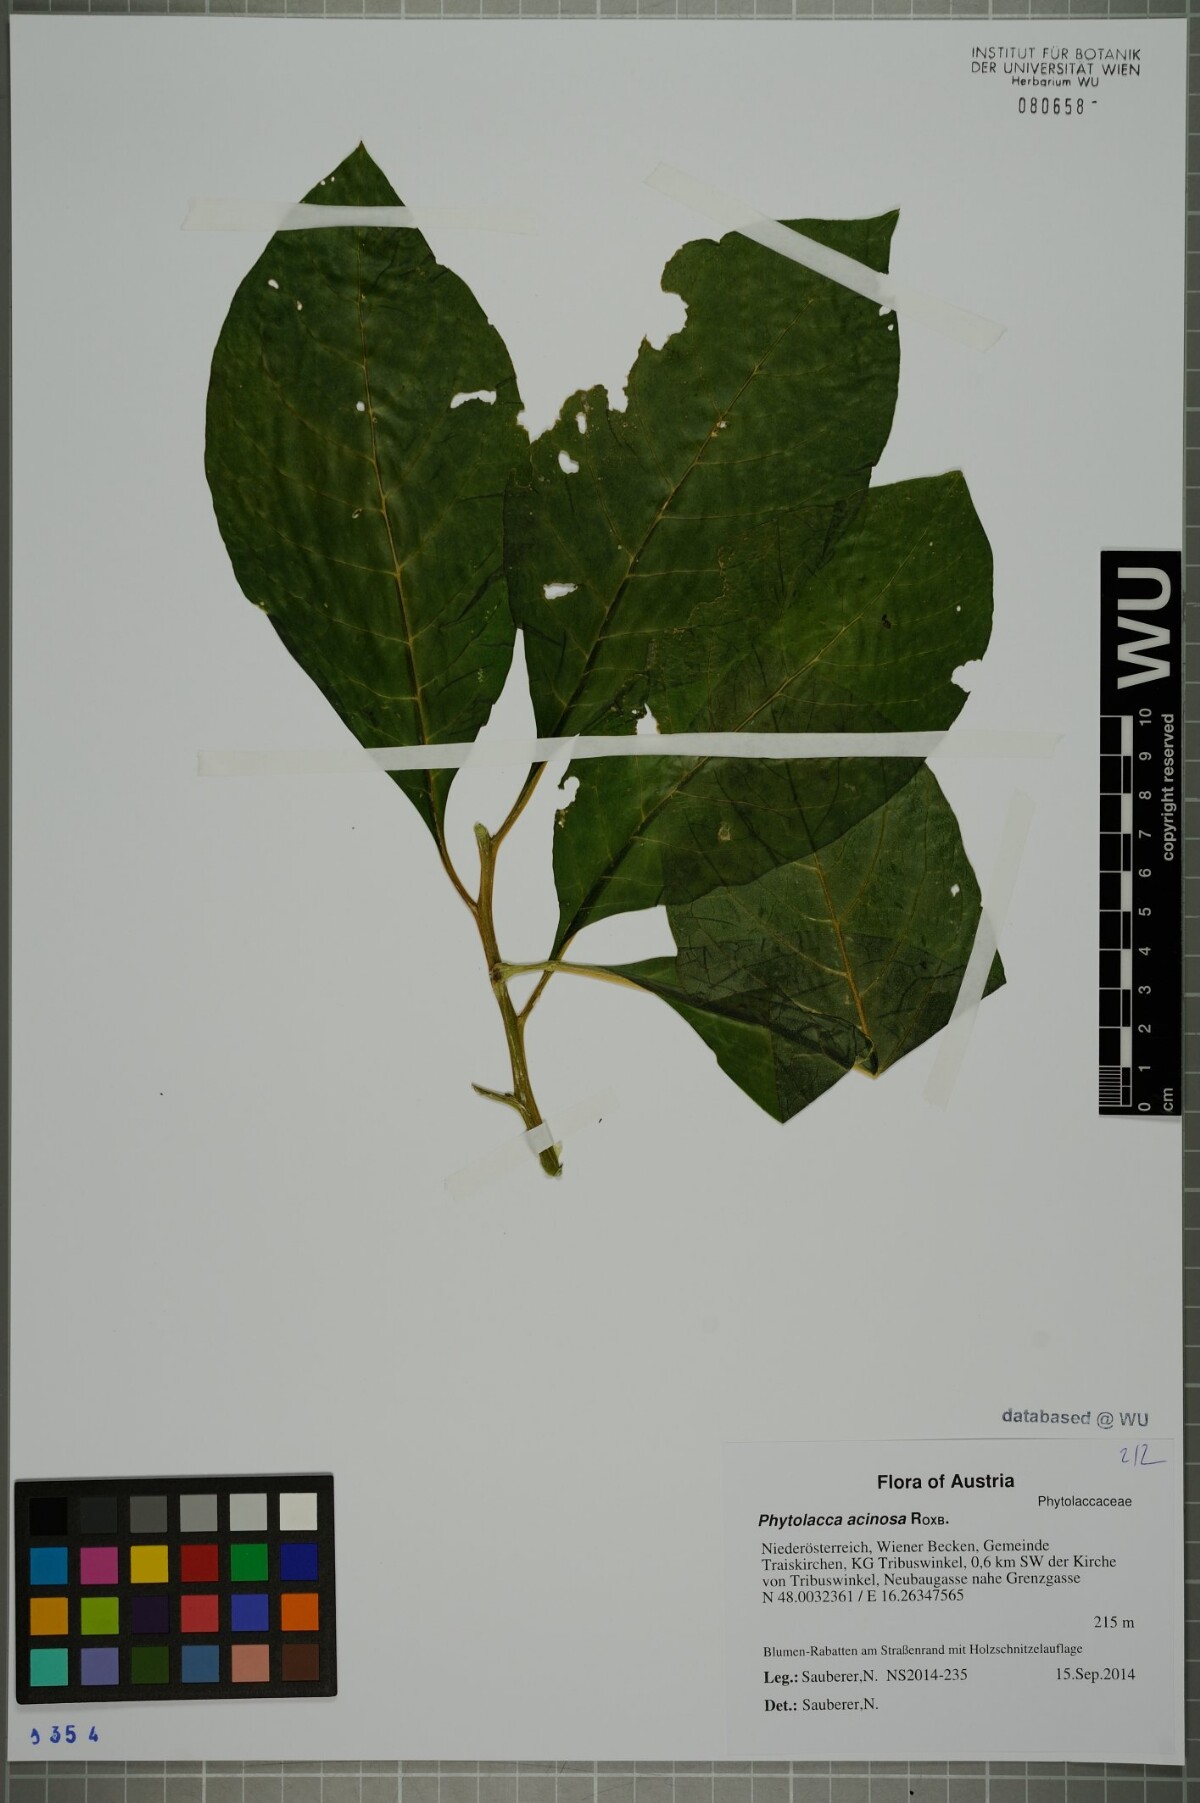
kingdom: Plantae
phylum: Tracheophyta
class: Magnoliopsida
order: Caryophyllales
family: Phytolaccaceae
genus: Phytolacca
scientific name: Phytolacca acinosa
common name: Indian pokeweed
